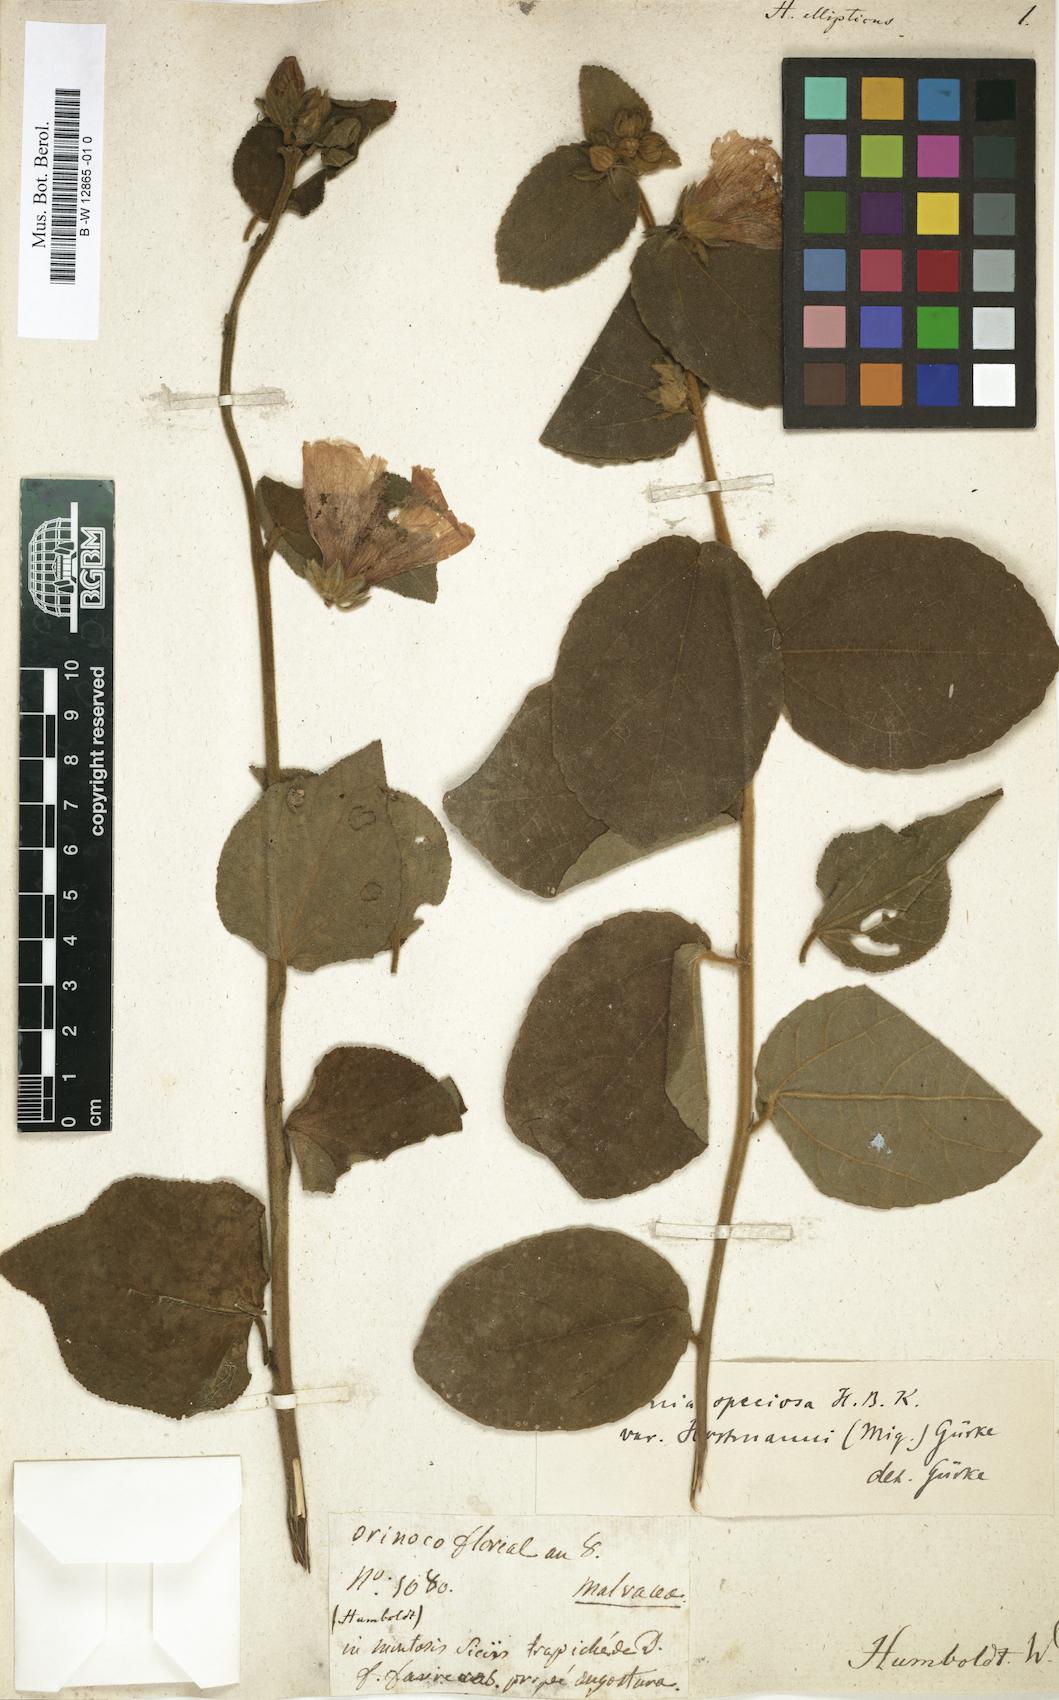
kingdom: Plantae
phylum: Tracheophyta
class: Magnoliopsida
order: Malvales
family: Malvaceae
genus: Hibiscus
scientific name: Hibiscus aethiopicus
